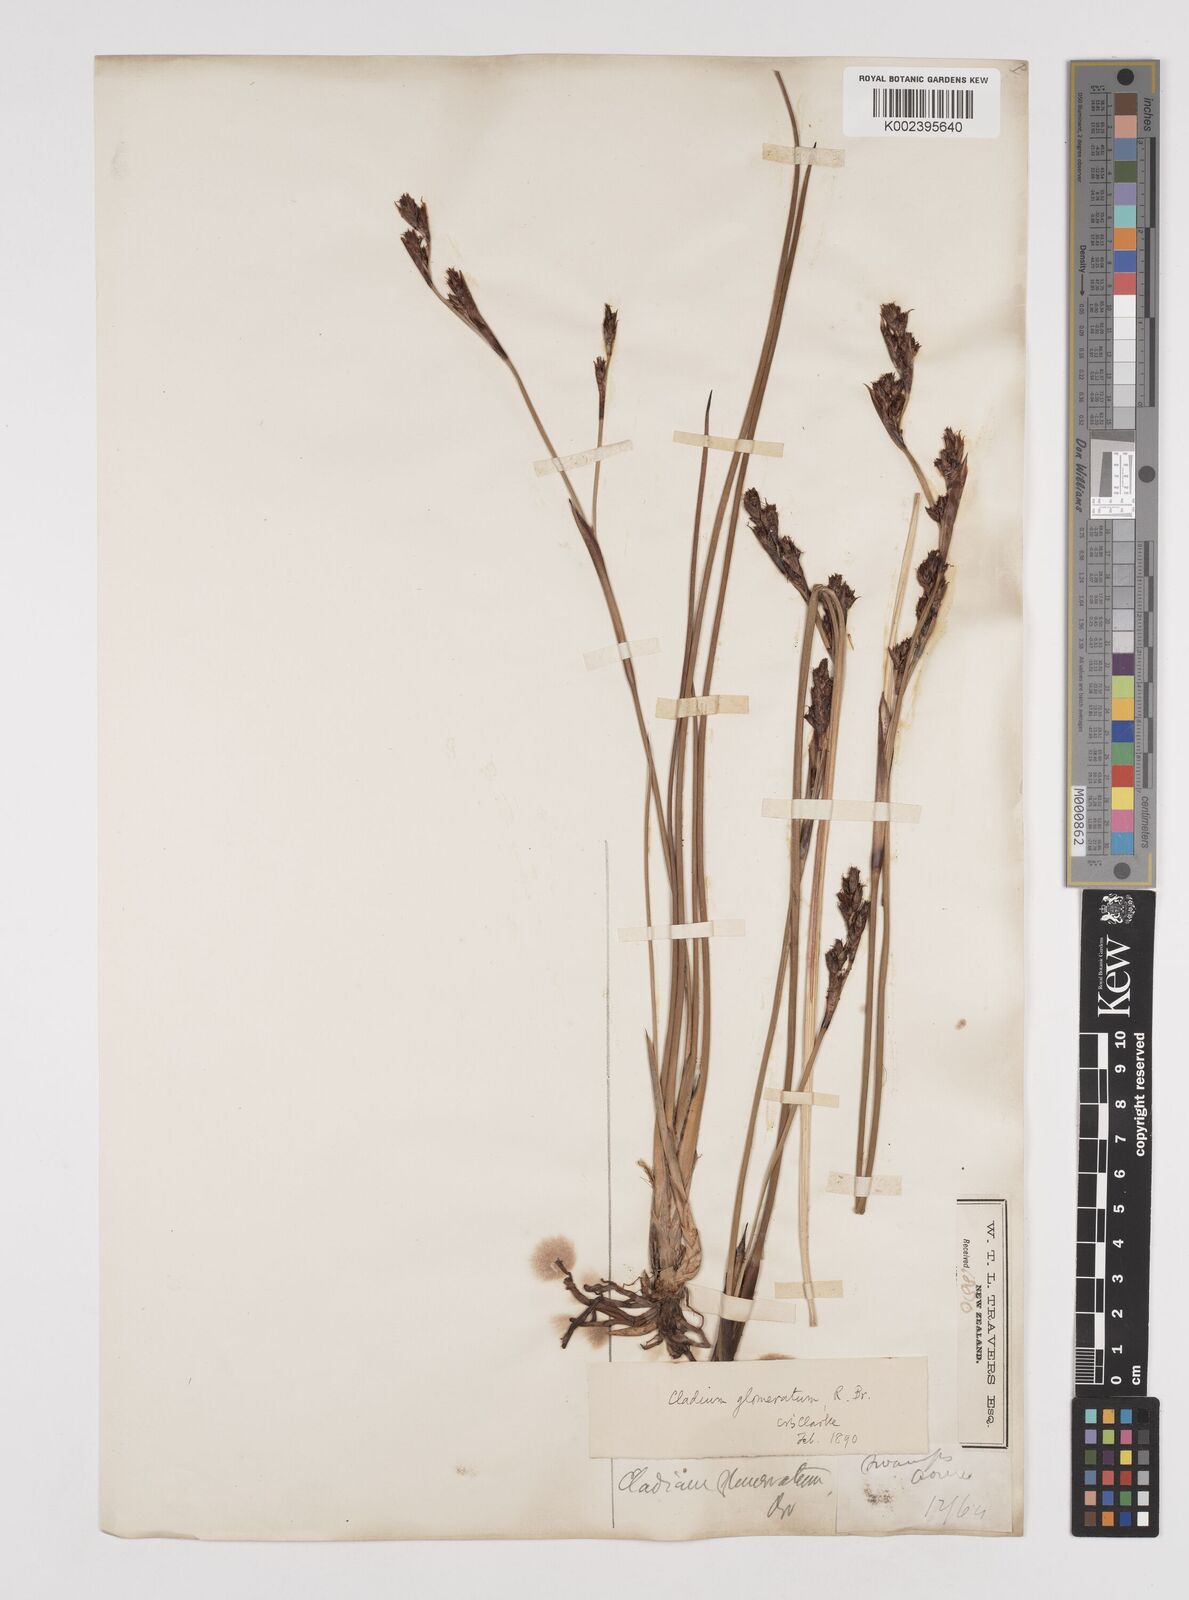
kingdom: Plantae
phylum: Tracheophyta
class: Liliopsida
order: Poales
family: Cyperaceae
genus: Machaerina
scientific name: Machaerina rubiginosa
